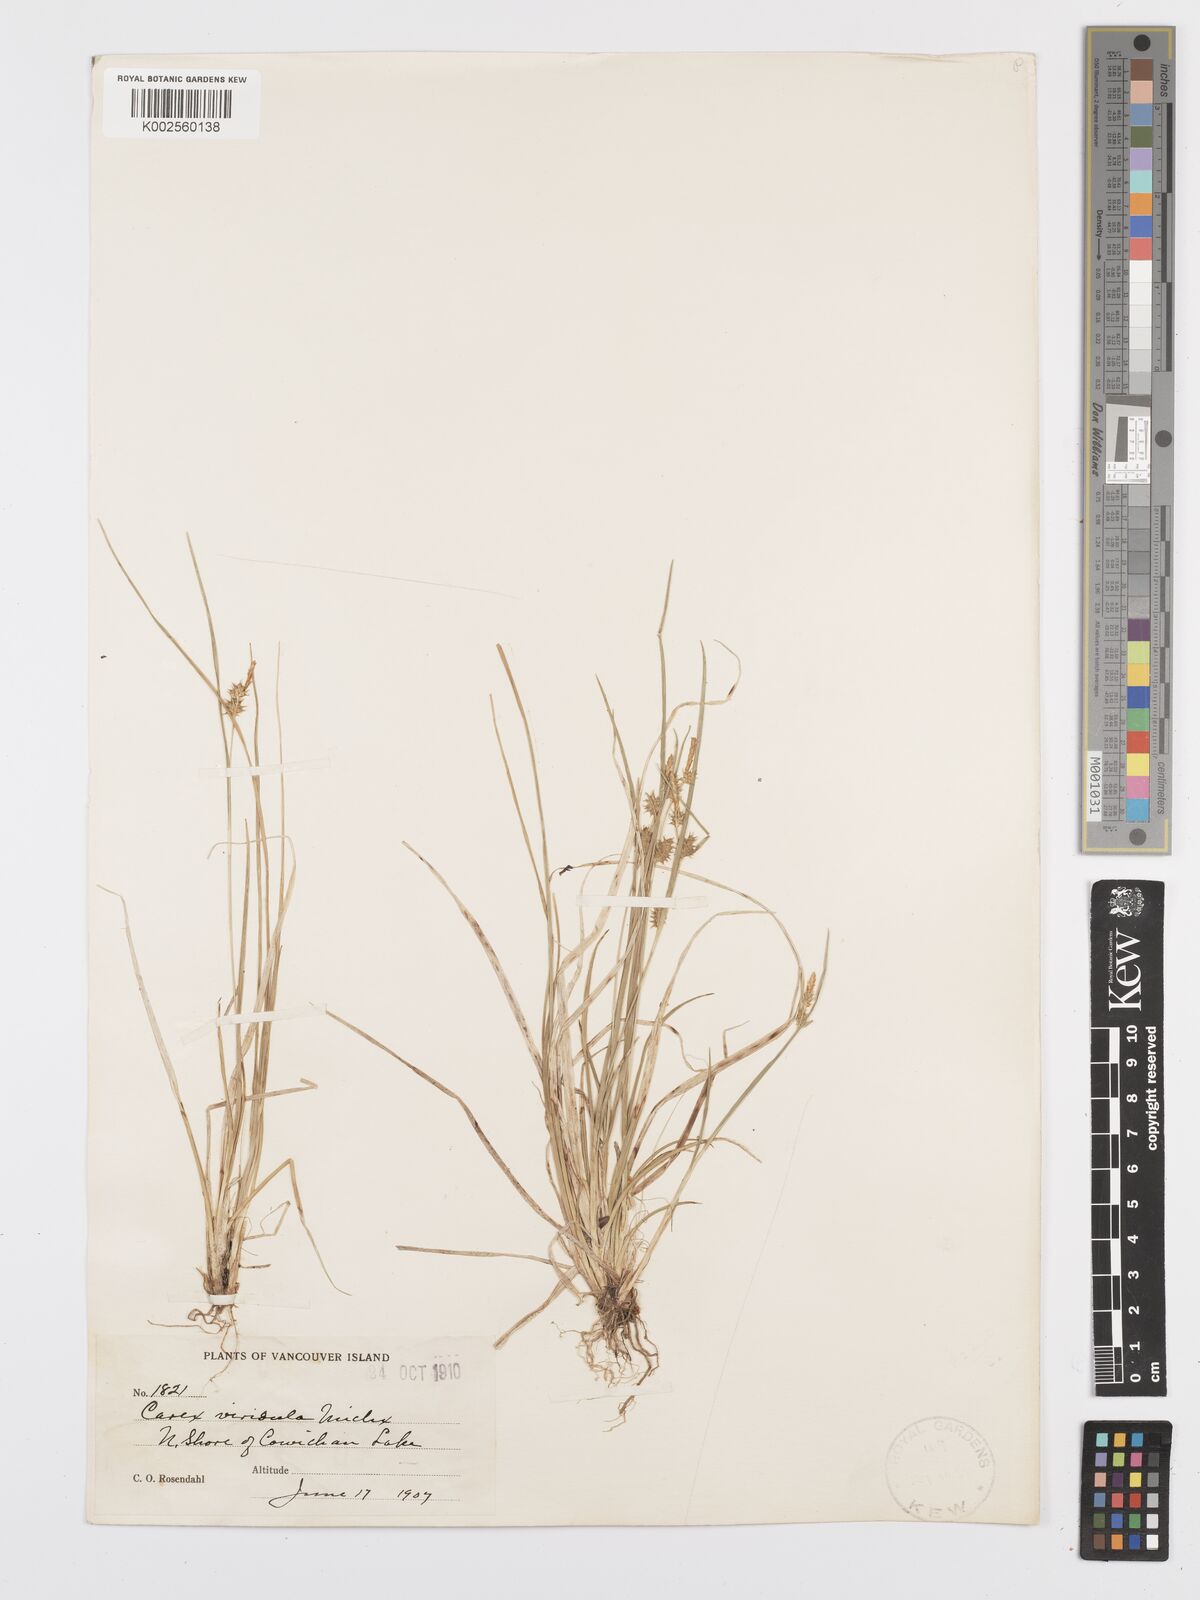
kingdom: Plantae
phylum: Tracheophyta
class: Liliopsida
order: Poales
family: Cyperaceae
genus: Carex
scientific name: Carex oederi
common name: Common & small-fruited yellow-sedge
